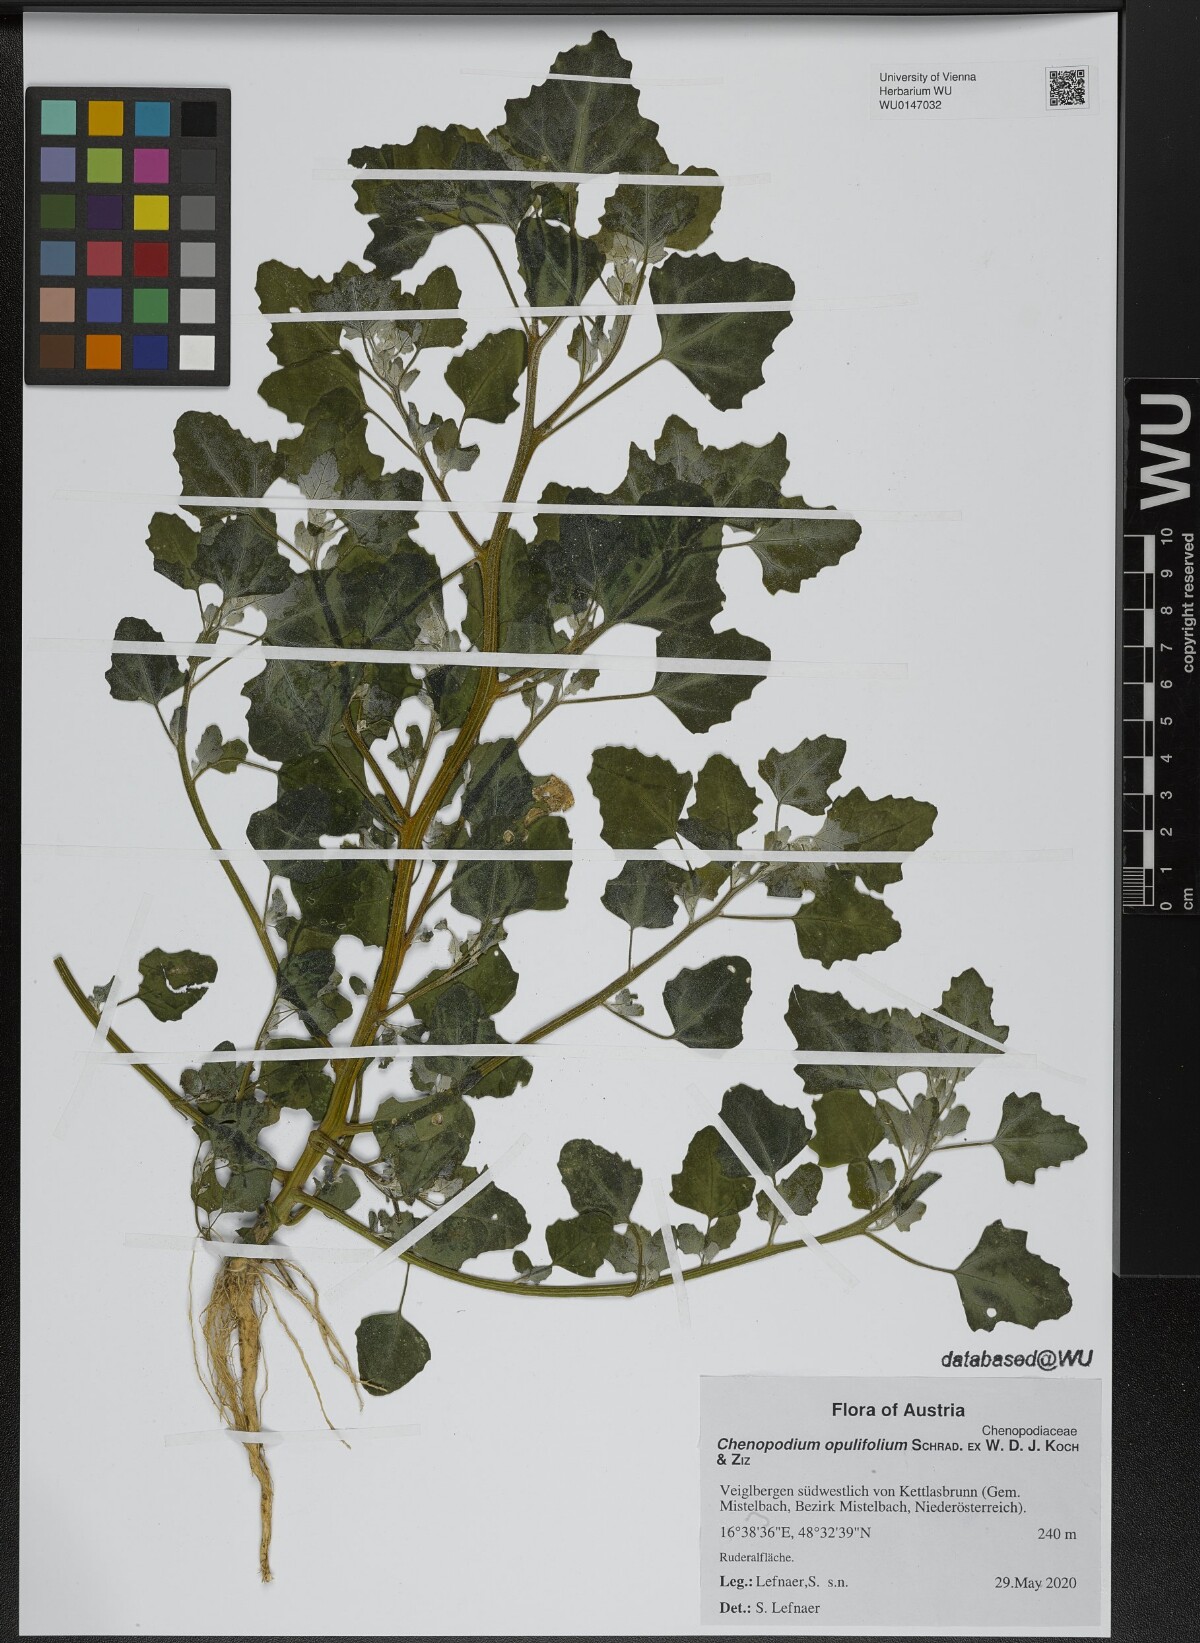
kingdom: Plantae
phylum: Tracheophyta
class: Magnoliopsida
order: Caryophyllales
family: Amaranthaceae
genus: Chenopodium
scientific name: Chenopodium opulifolium
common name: Grey goosefoot
